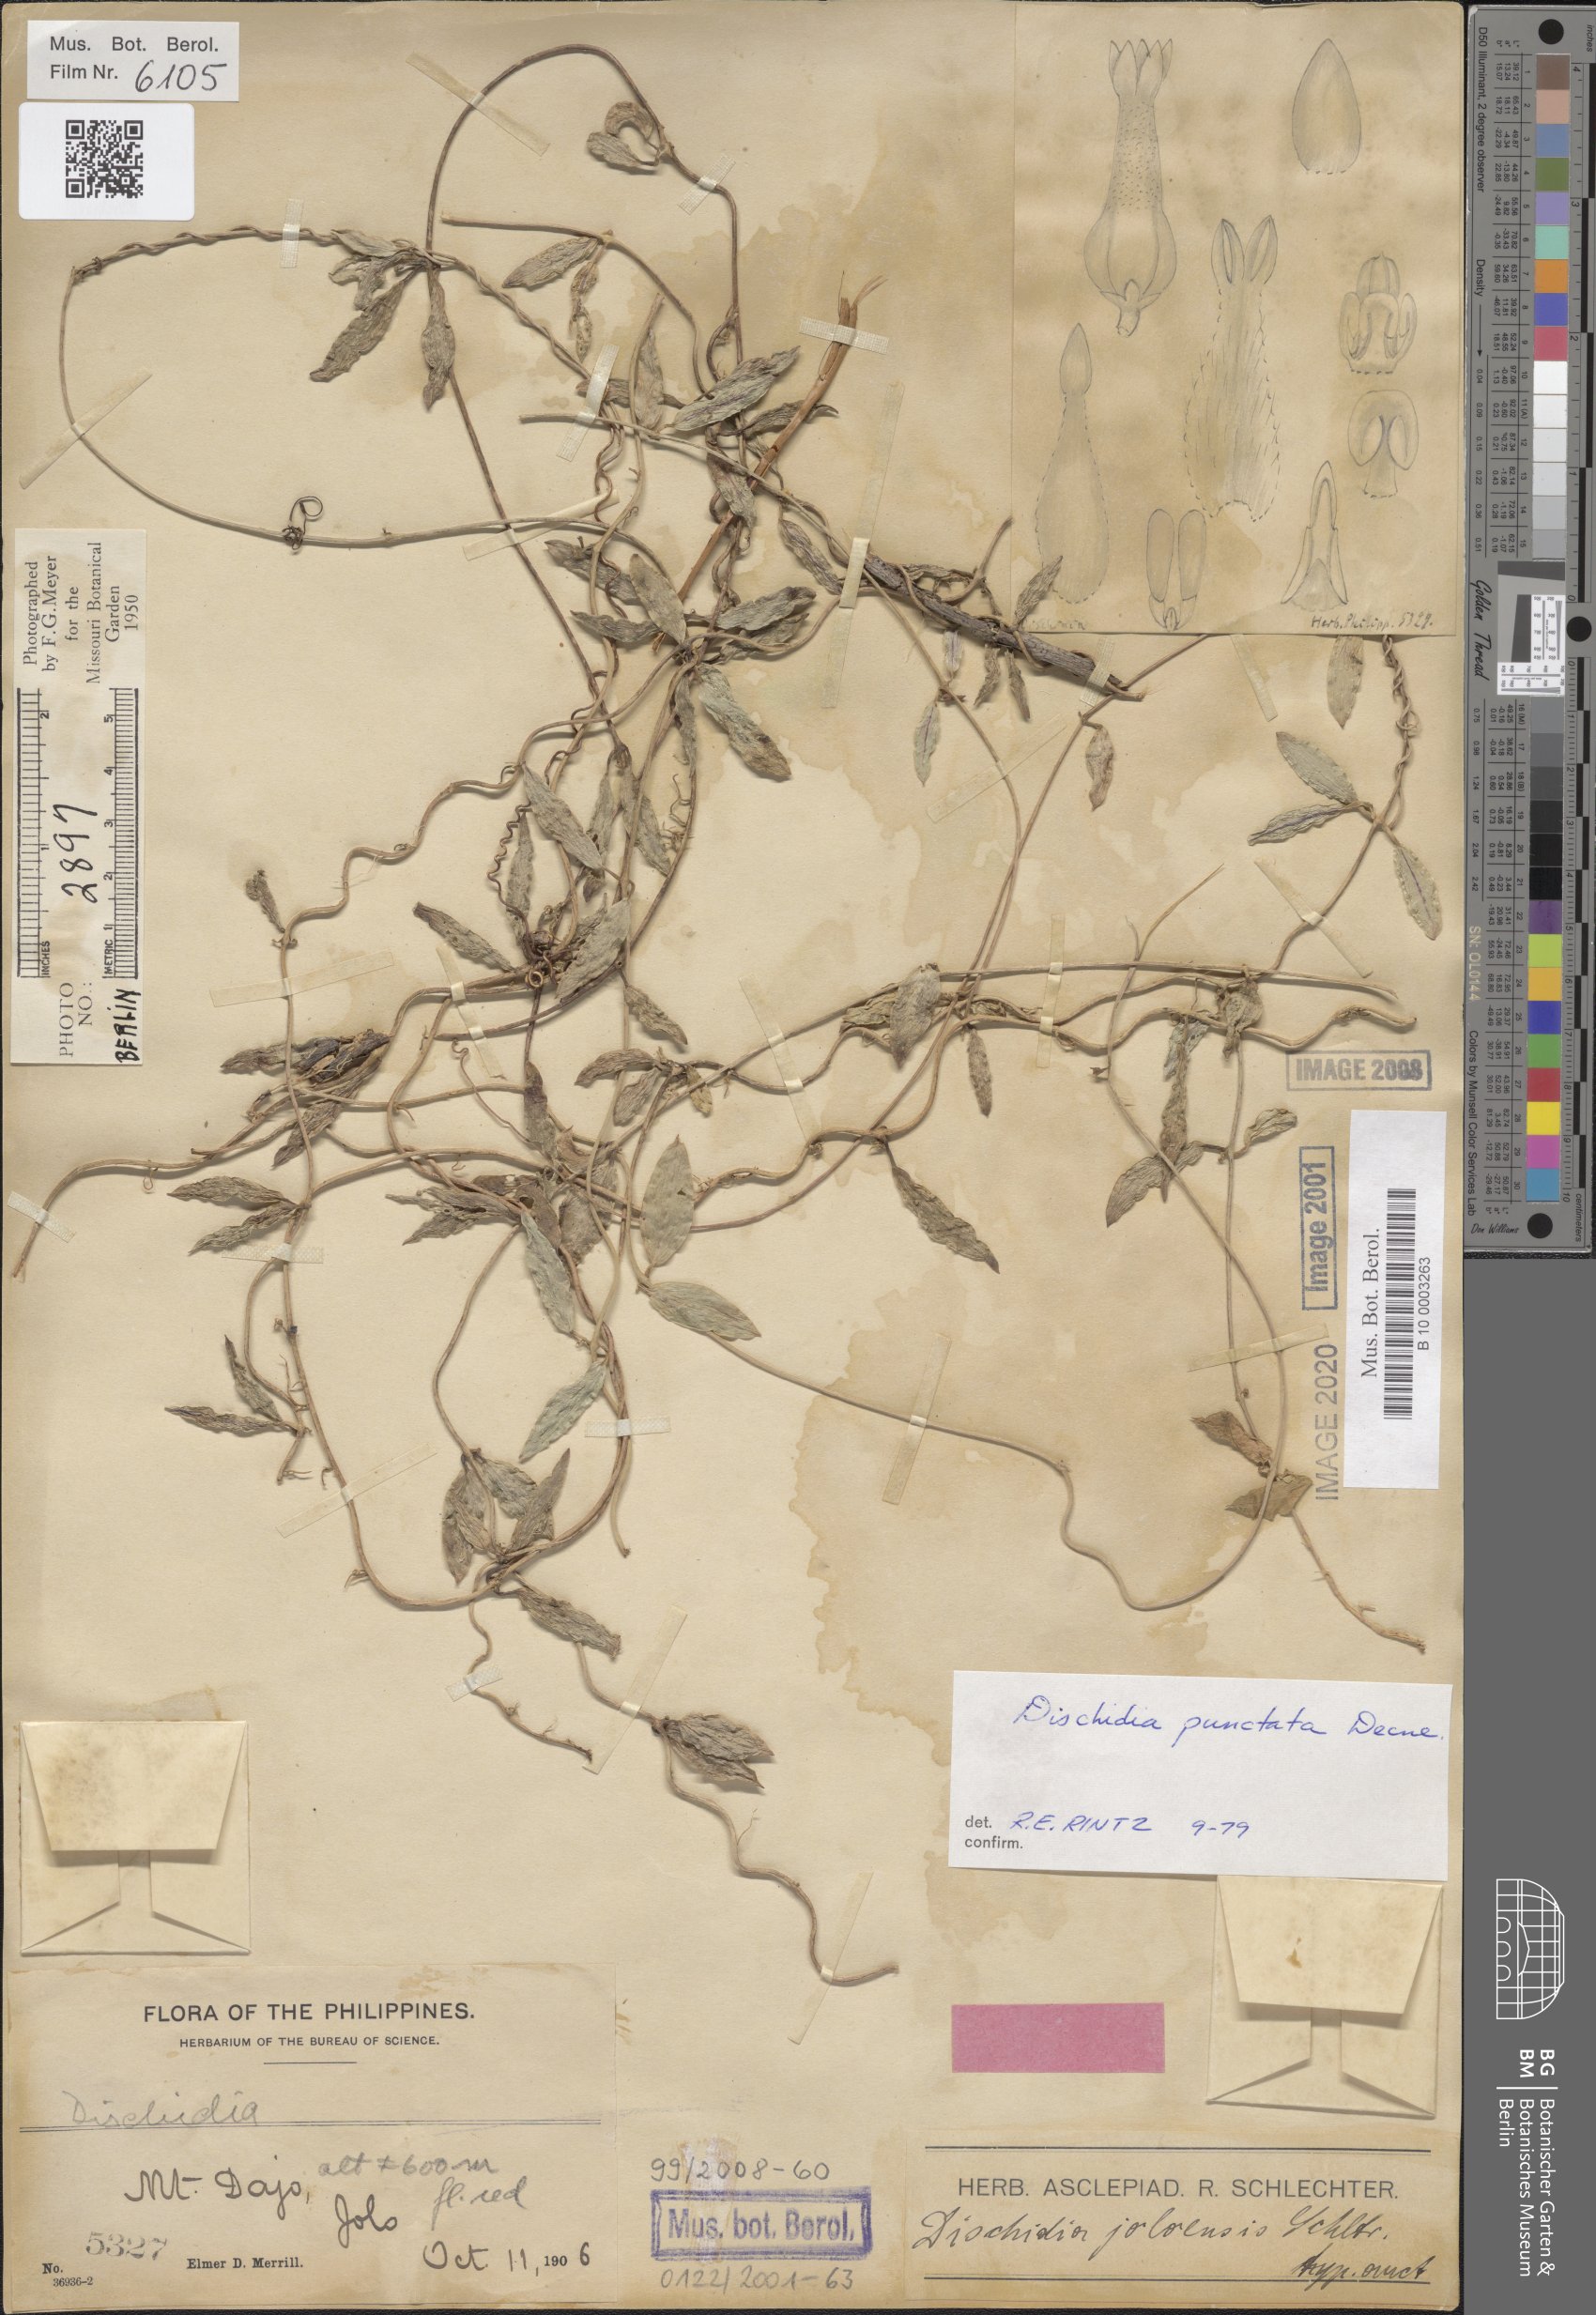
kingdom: Plantae
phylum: Tracheophyta
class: Magnoliopsida
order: Gentianales
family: Apocynaceae
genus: Dischidia
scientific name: Dischidia punctata
